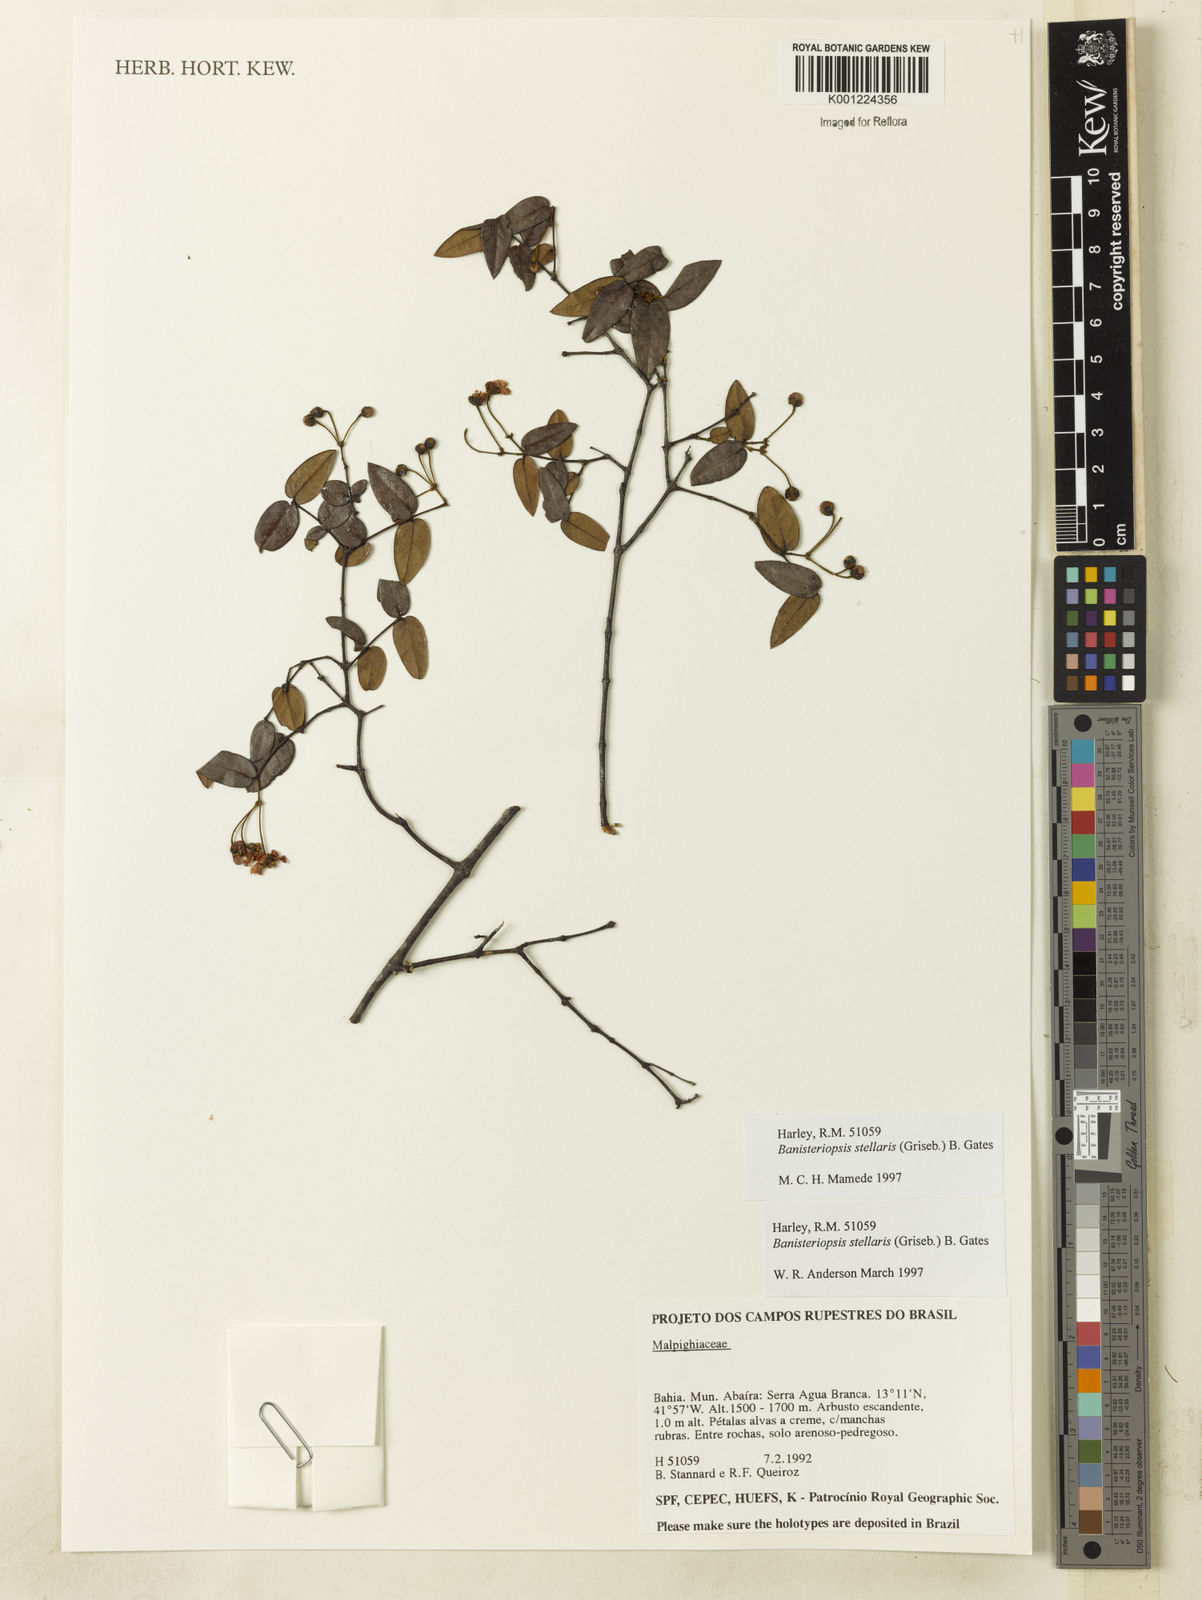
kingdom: Plantae
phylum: Tracheophyta
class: Magnoliopsida
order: Malpighiales
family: Malpighiaceae
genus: Banisteriopsis
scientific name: Banisteriopsis stellaris
